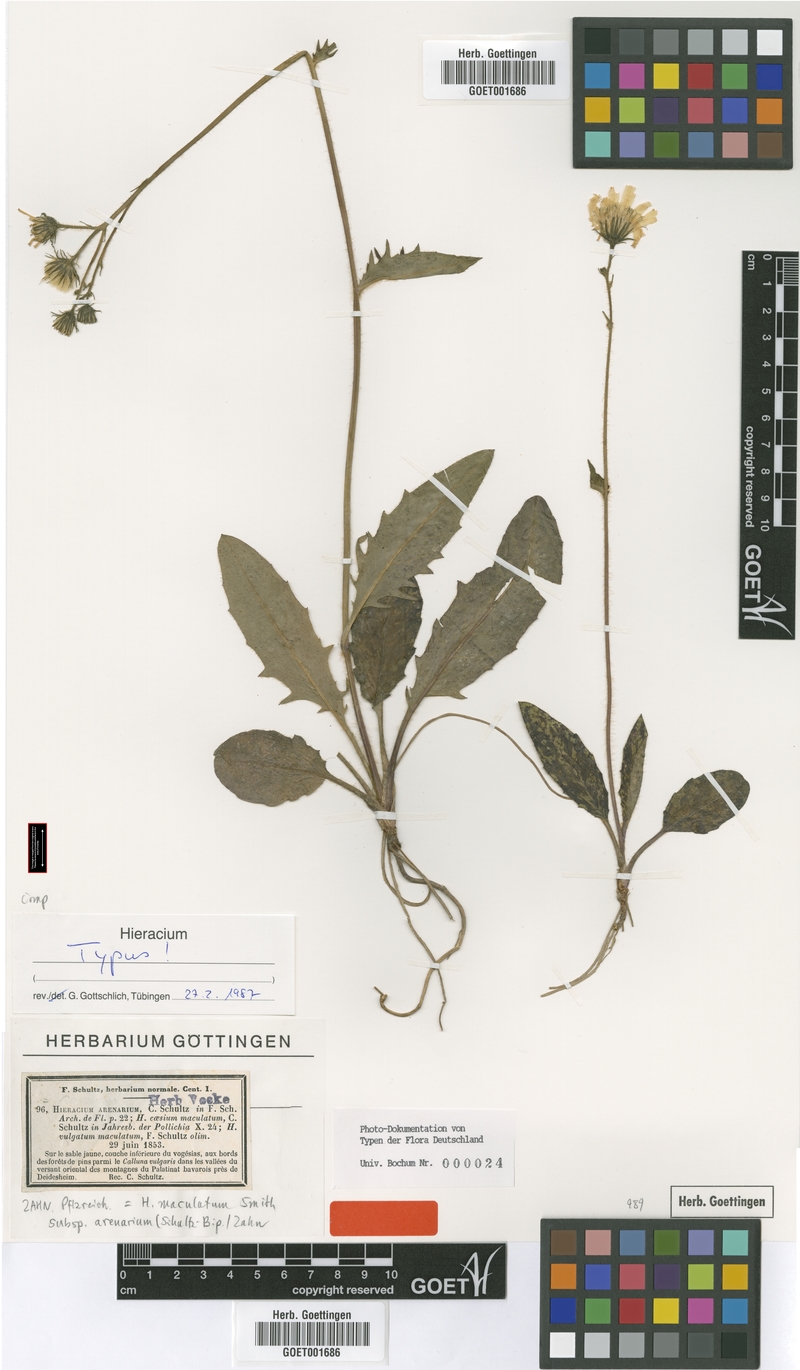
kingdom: Plantae
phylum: Tracheophyta
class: Magnoliopsida
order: Asterales
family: Asteraceae
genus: Hieracium
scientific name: Hieracium maculatum
